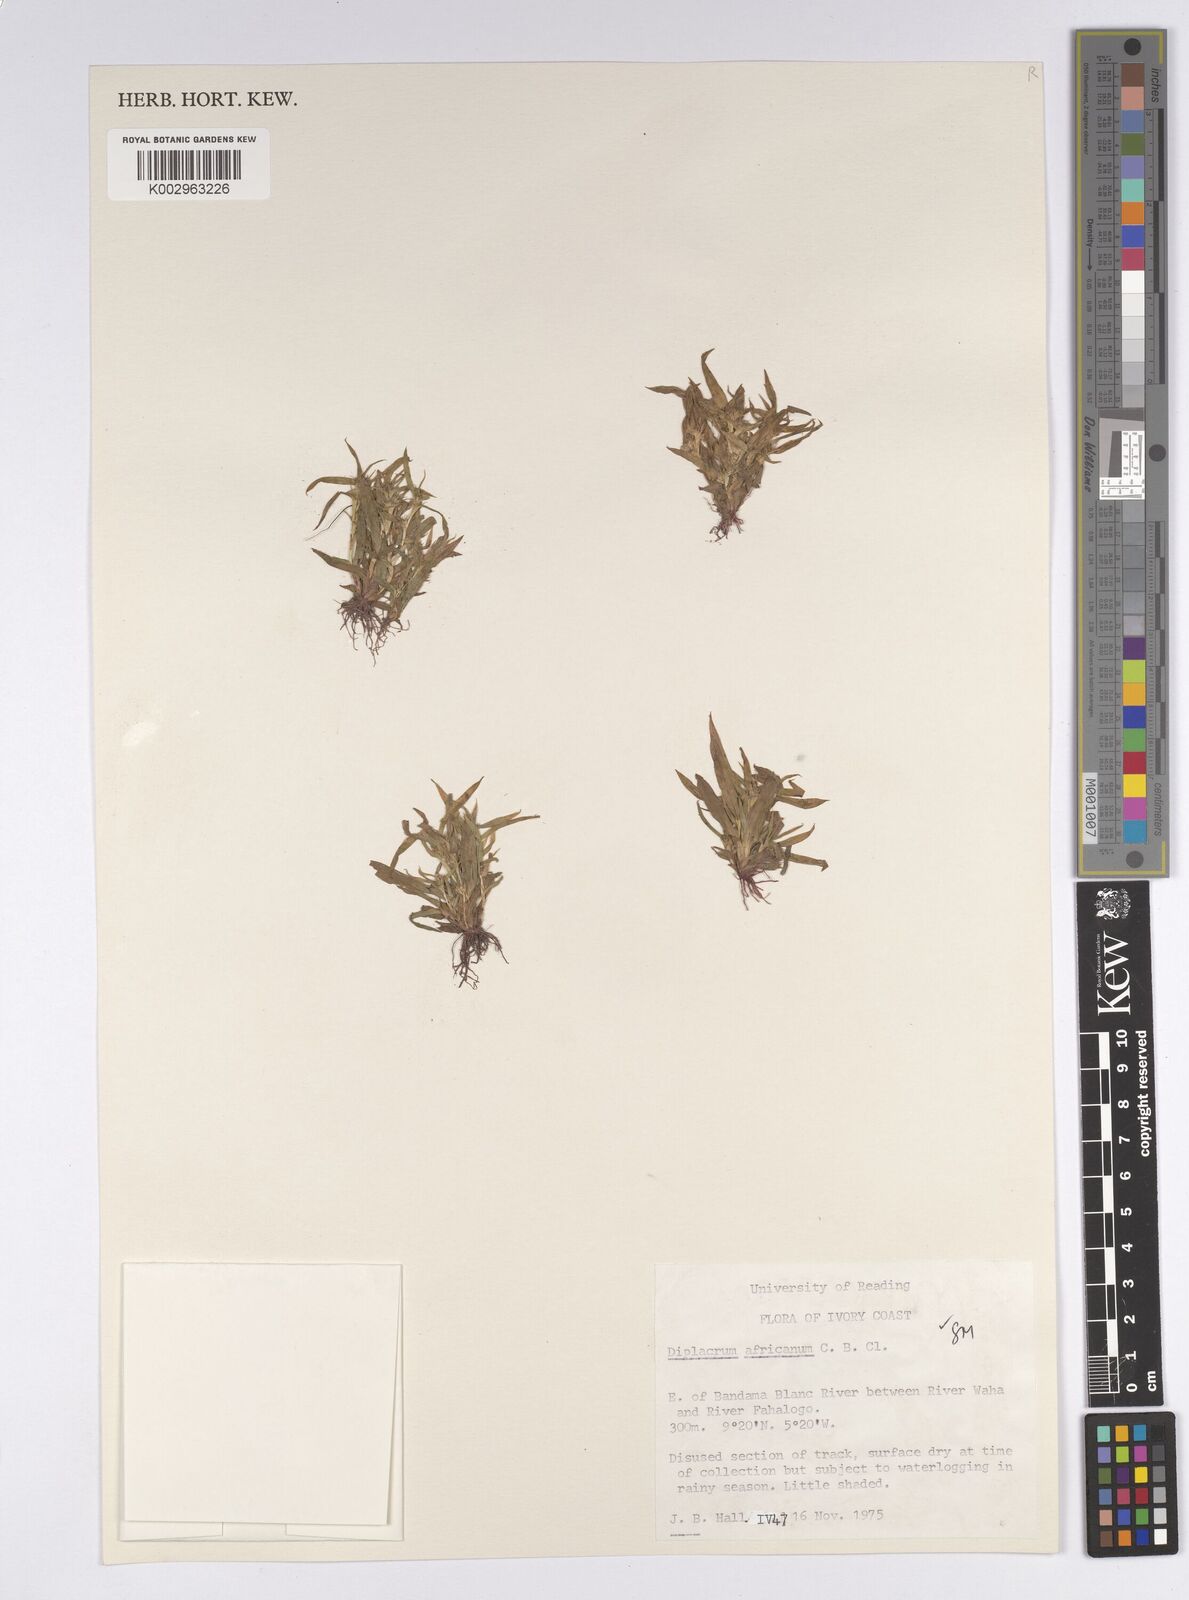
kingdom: Plantae
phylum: Tracheophyta
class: Liliopsida
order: Poales
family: Cyperaceae
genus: Diplacrum
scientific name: Diplacrum africanum
